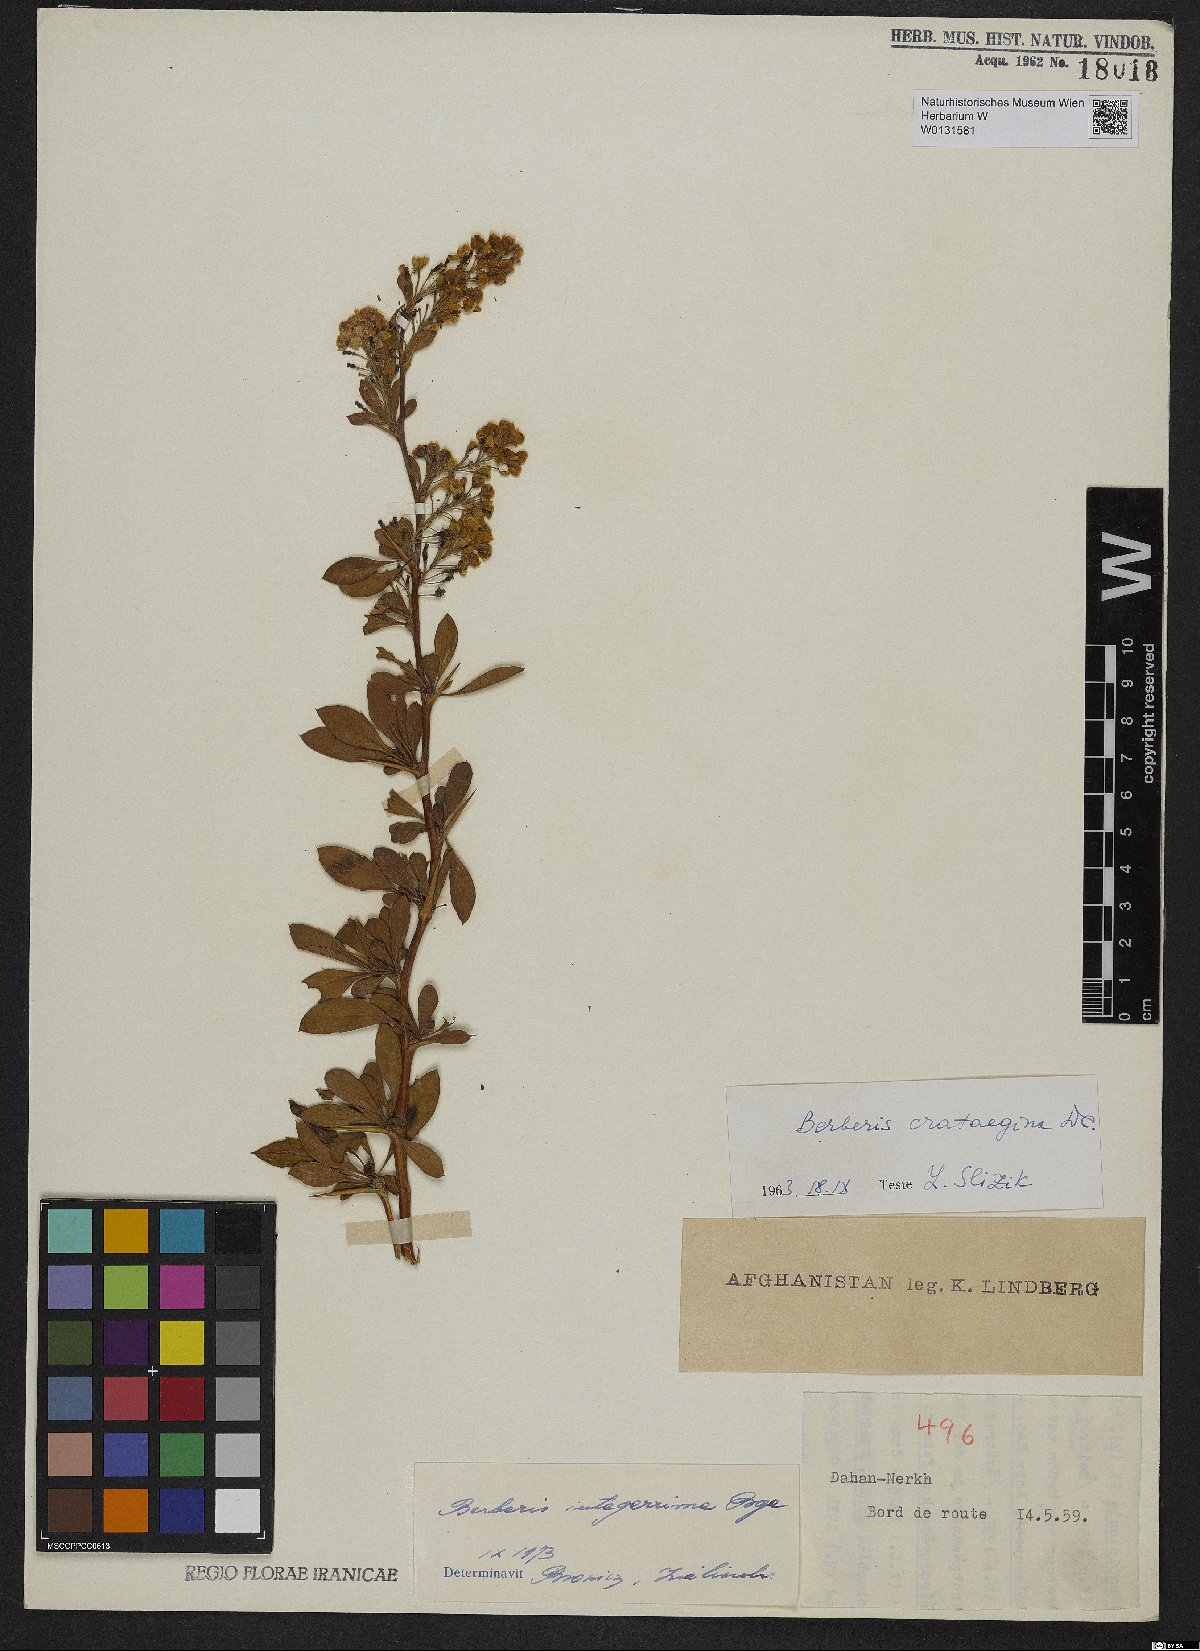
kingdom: Plantae
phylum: Tracheophyta
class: Magnoliopsida
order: Ranunculales
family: Berberidaceae
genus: Berberis
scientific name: Berberis integerrima
